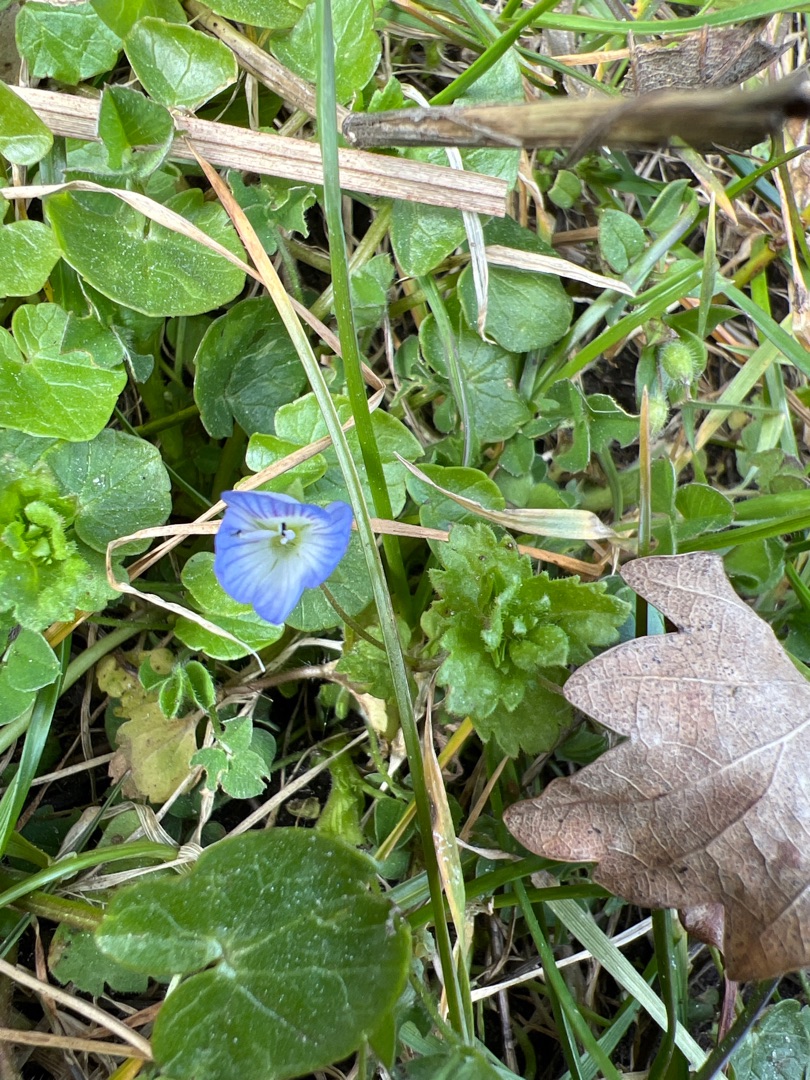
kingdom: Plantae
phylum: Tracheophyta
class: Magnoliopsida
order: Lamiales
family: Plantaginaceae
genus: Veronica
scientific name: Veronica persica
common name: Storkronet ærenpris
